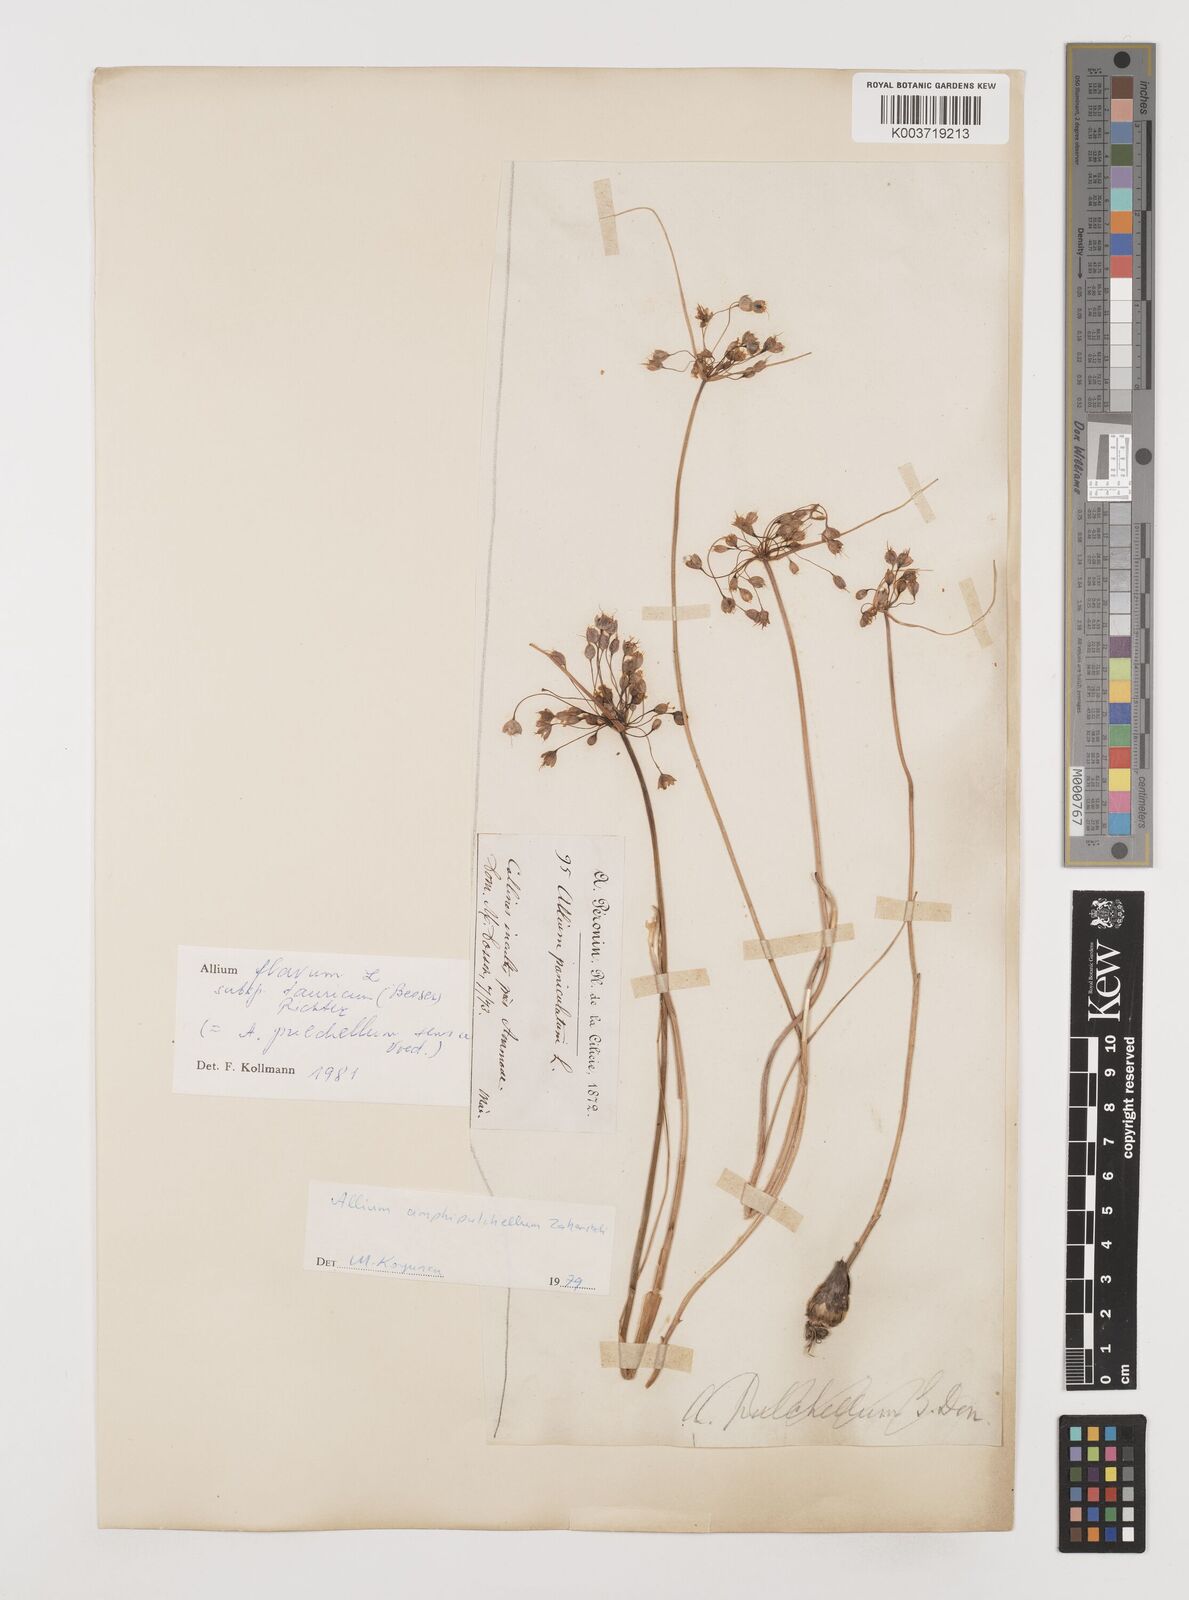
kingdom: Plantae
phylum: Tracheophyta
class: Liliopsida
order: Asparagales
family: Amaryllidaceae
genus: Allium
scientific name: Allium flavum
